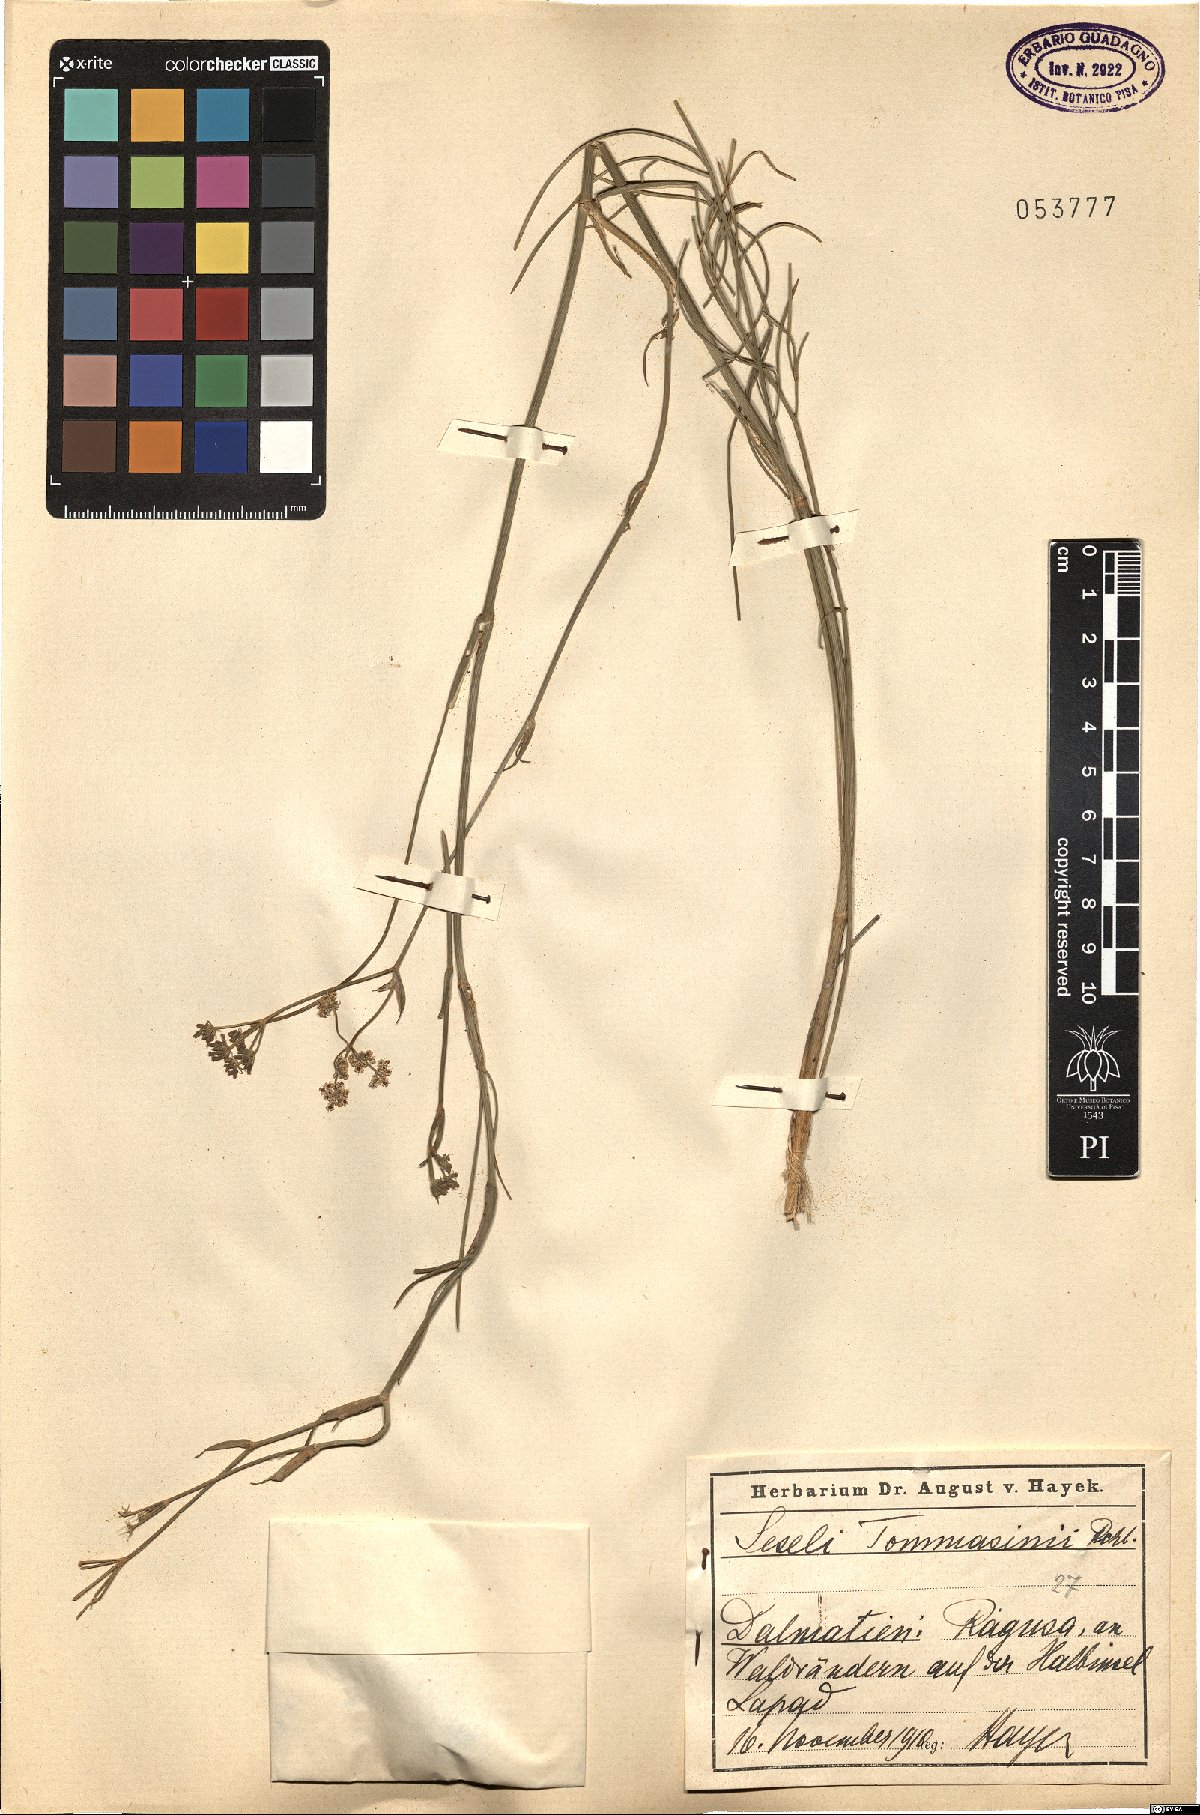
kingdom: Plantae
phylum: Tracheophyta
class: Magnoliopsida
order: Apiales
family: Apiaceae
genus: Seseli
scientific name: Seseli montanum
